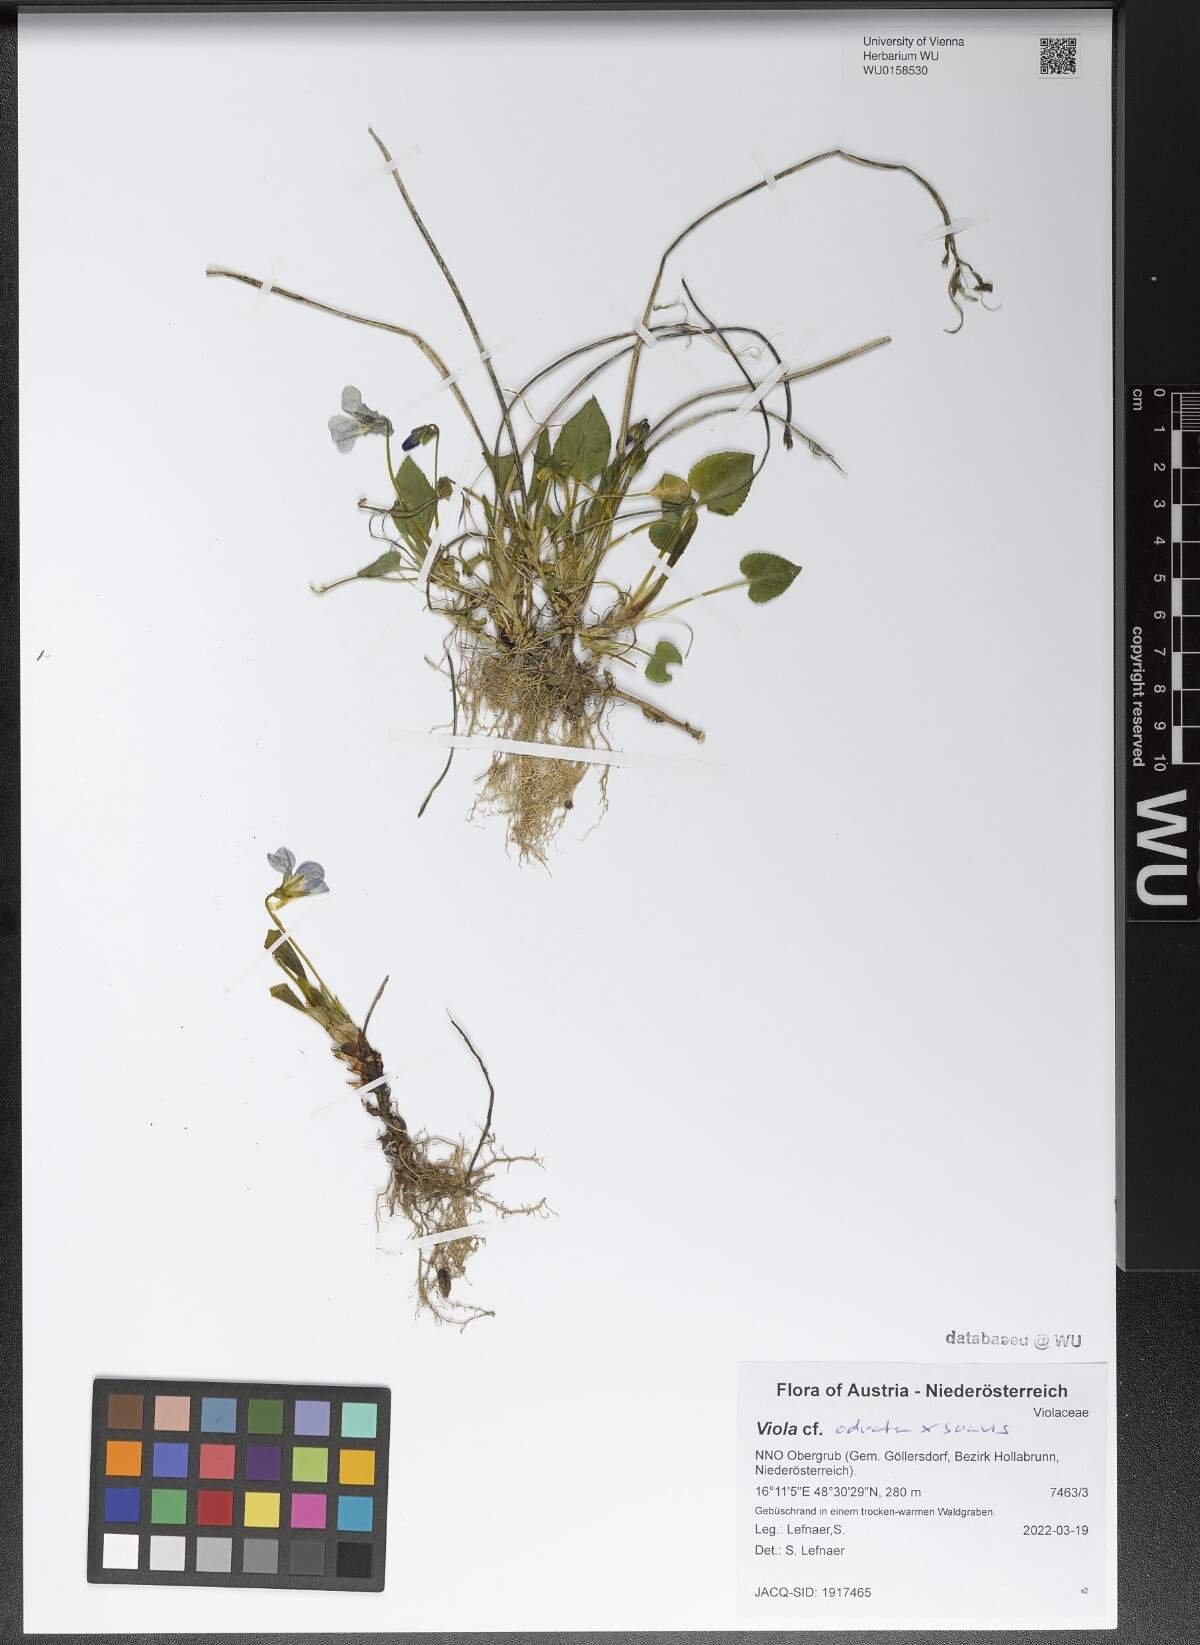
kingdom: Plantae
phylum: Tracheophyta
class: Magnoliopsida
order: Malpighiales
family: Violaceae
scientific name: Violaceae
